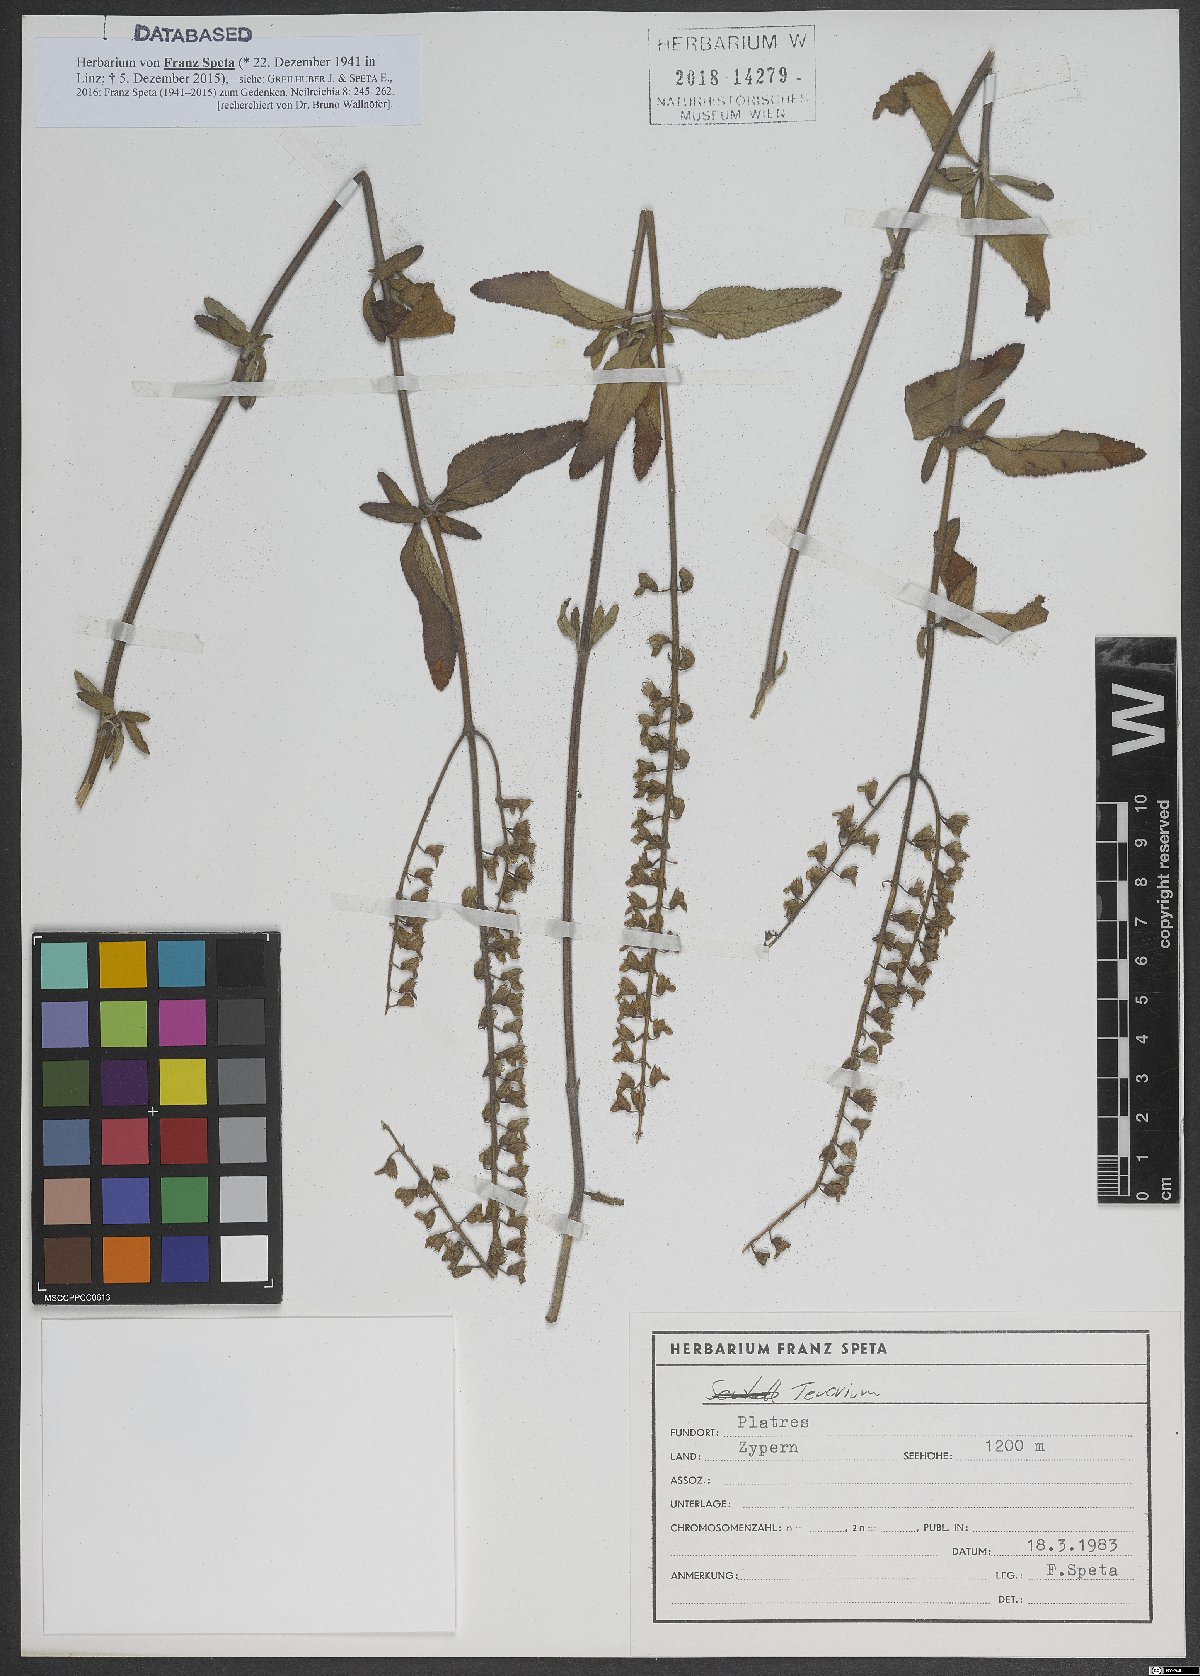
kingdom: Plantae
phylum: Tracheophyta
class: Magnoliopsida
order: Lamiales
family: Lamiaceae
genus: Teucrium
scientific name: Teucrium
